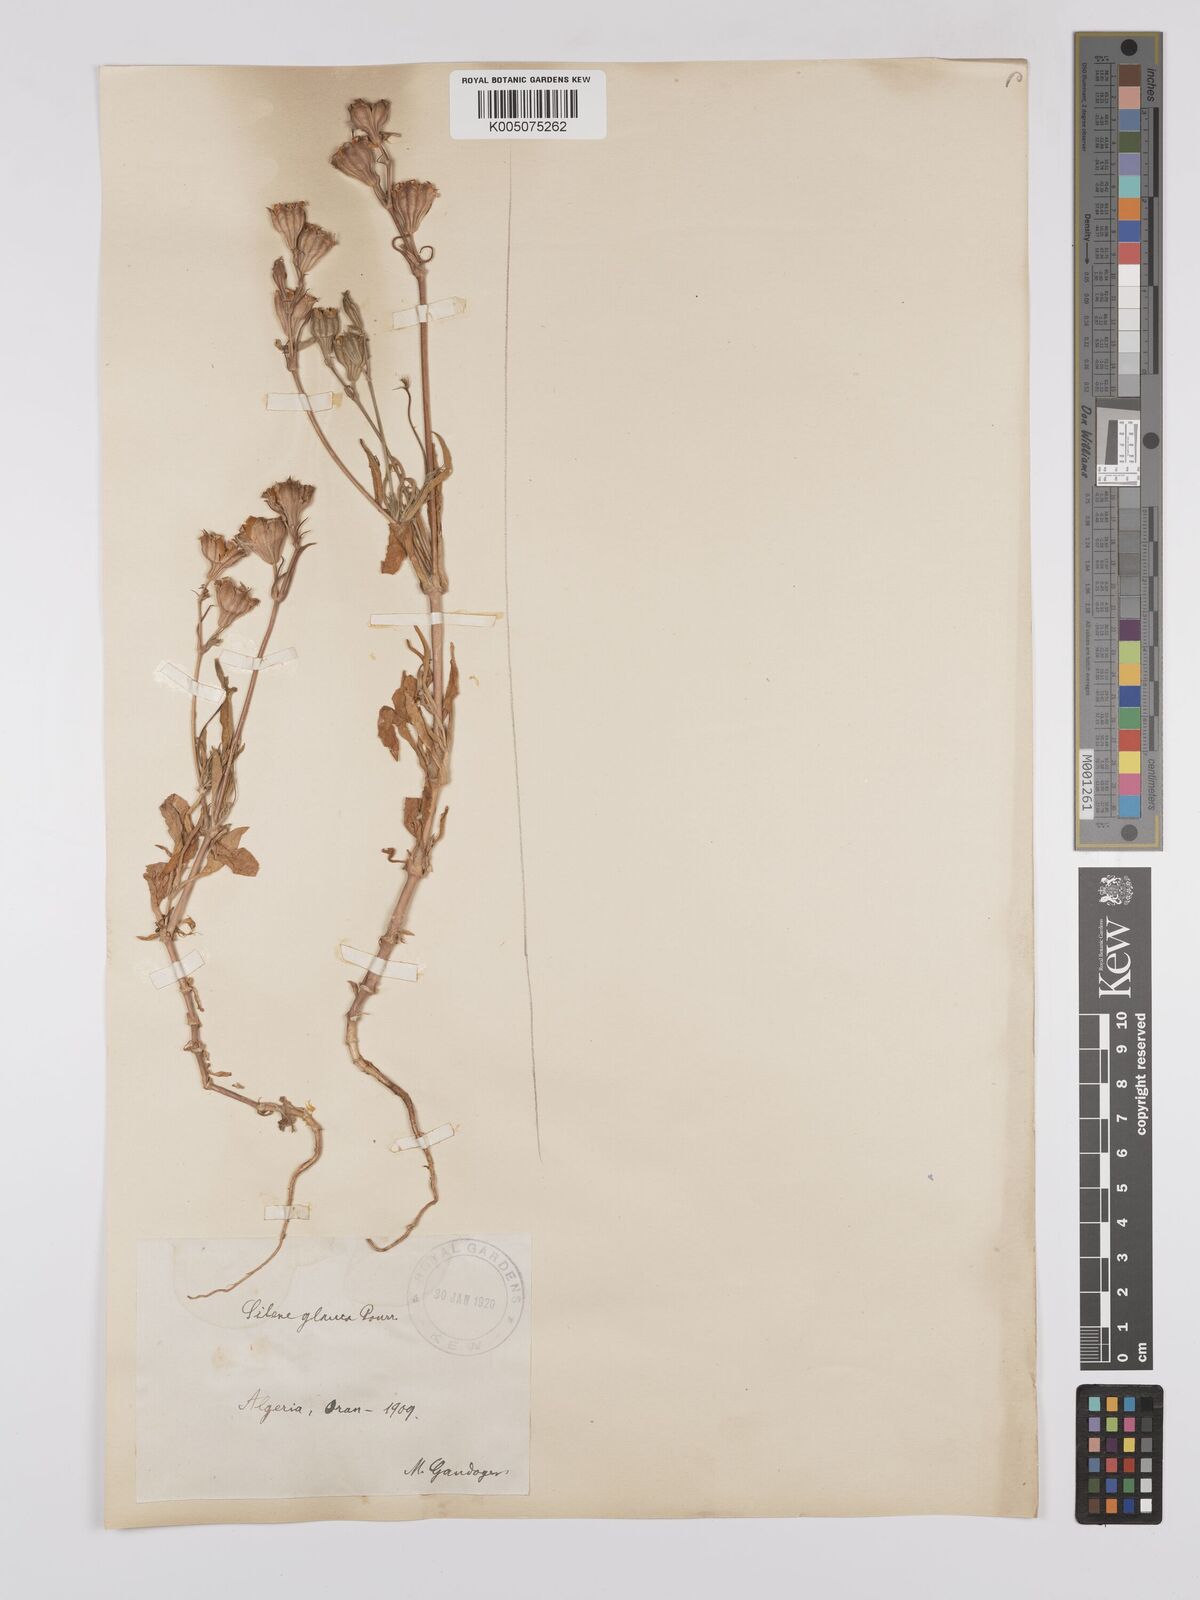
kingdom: Plantae
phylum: Tracheophyta
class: Magnoliopsida
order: Caryophyllales
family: Caryophyllaceae
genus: Silene
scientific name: Silene secundiflora
